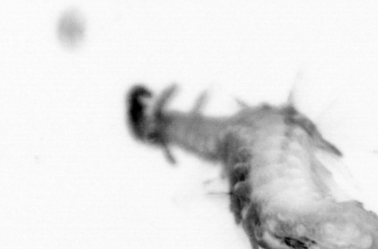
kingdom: Animalia
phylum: Annelida
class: Polychaeta
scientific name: Polychaeta
